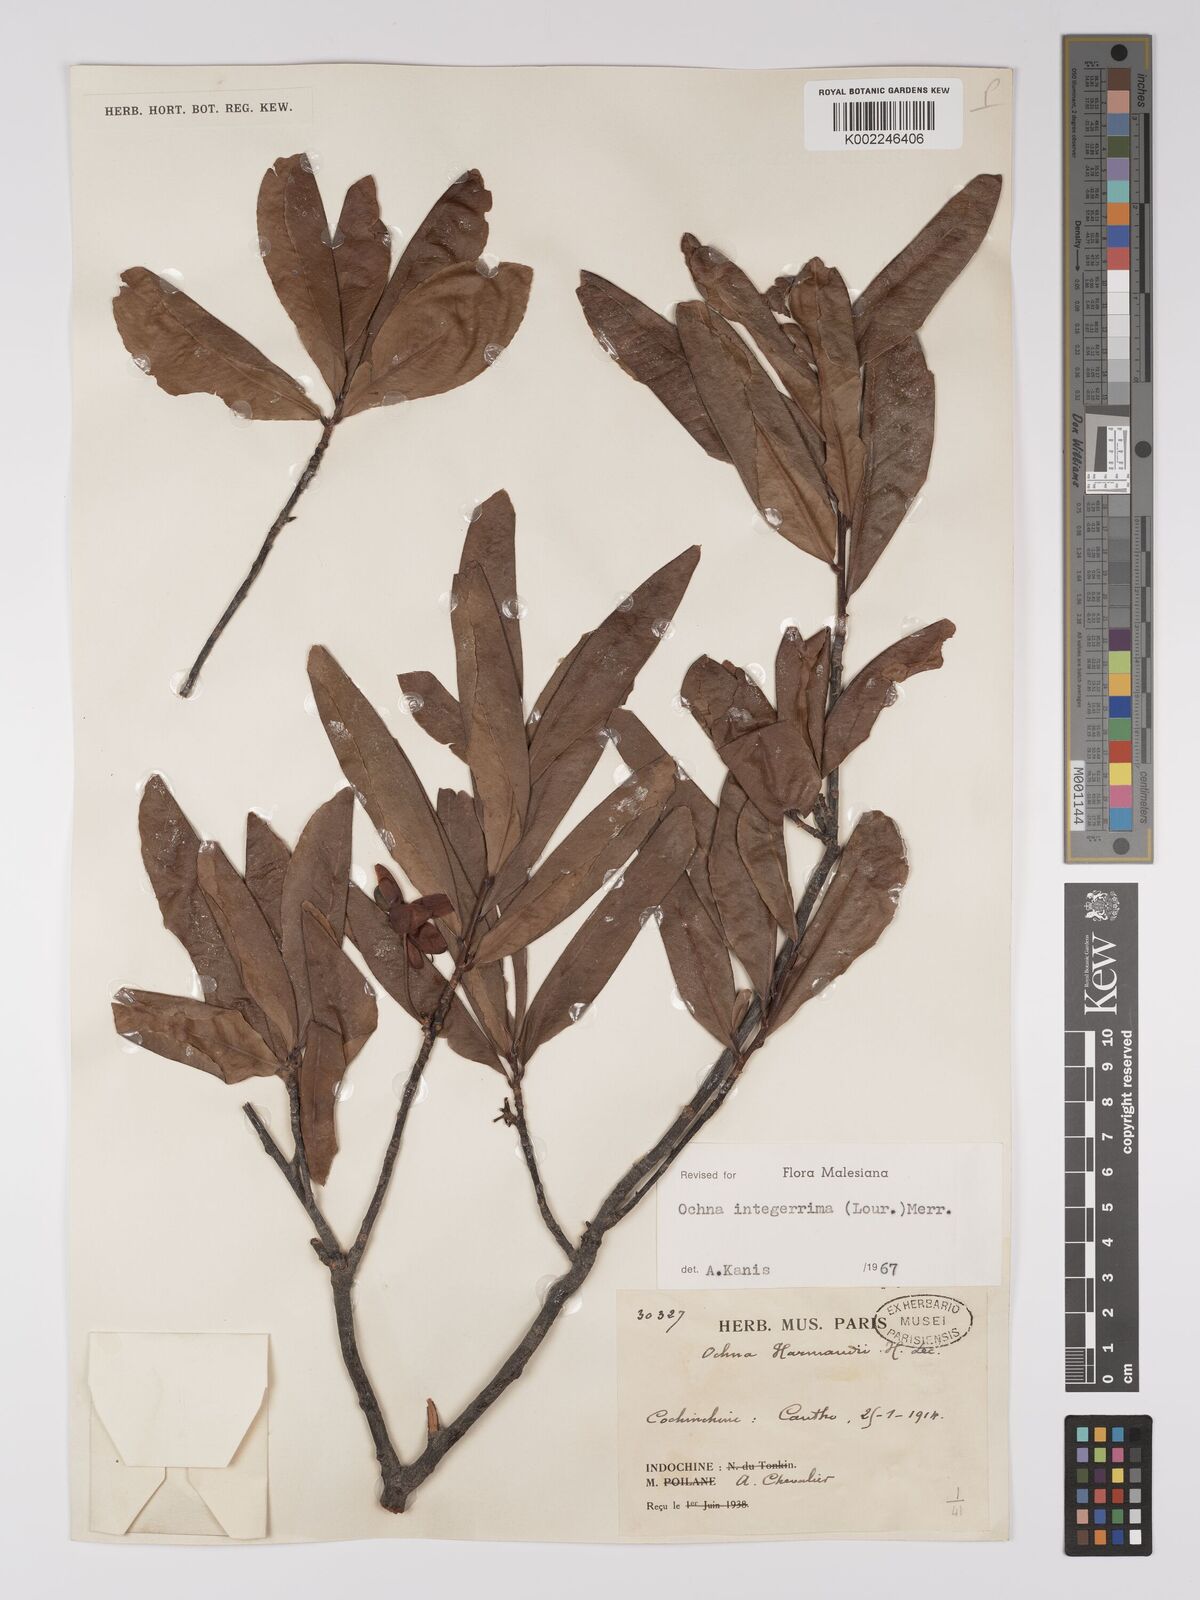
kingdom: Plantae
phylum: Tracheophyta
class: Magnoliopsida
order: Malpighiales
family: Ochnaceae
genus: Ochna
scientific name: Ochna integerrima
